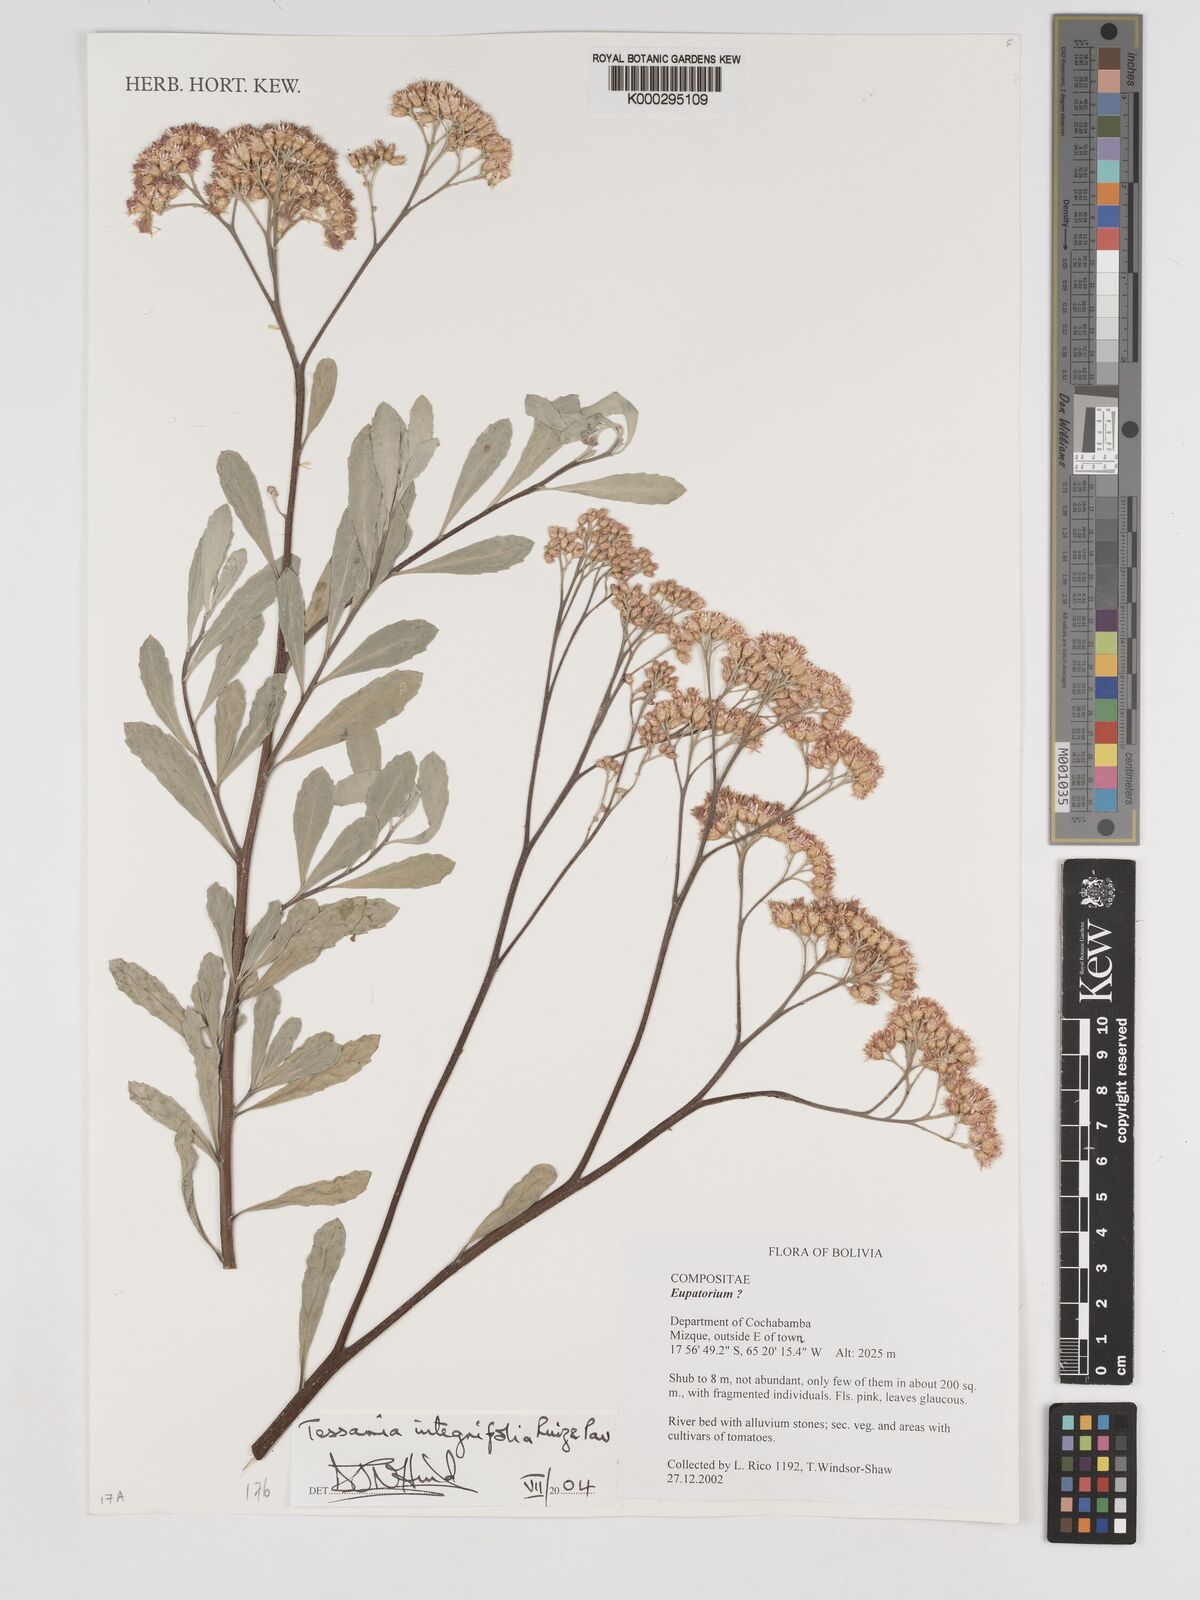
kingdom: Plantae
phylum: Tracheophyta
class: Magnoliopsida
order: Asterales
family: Asteraceae
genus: Tessaria
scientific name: Tessaria integrifolia
